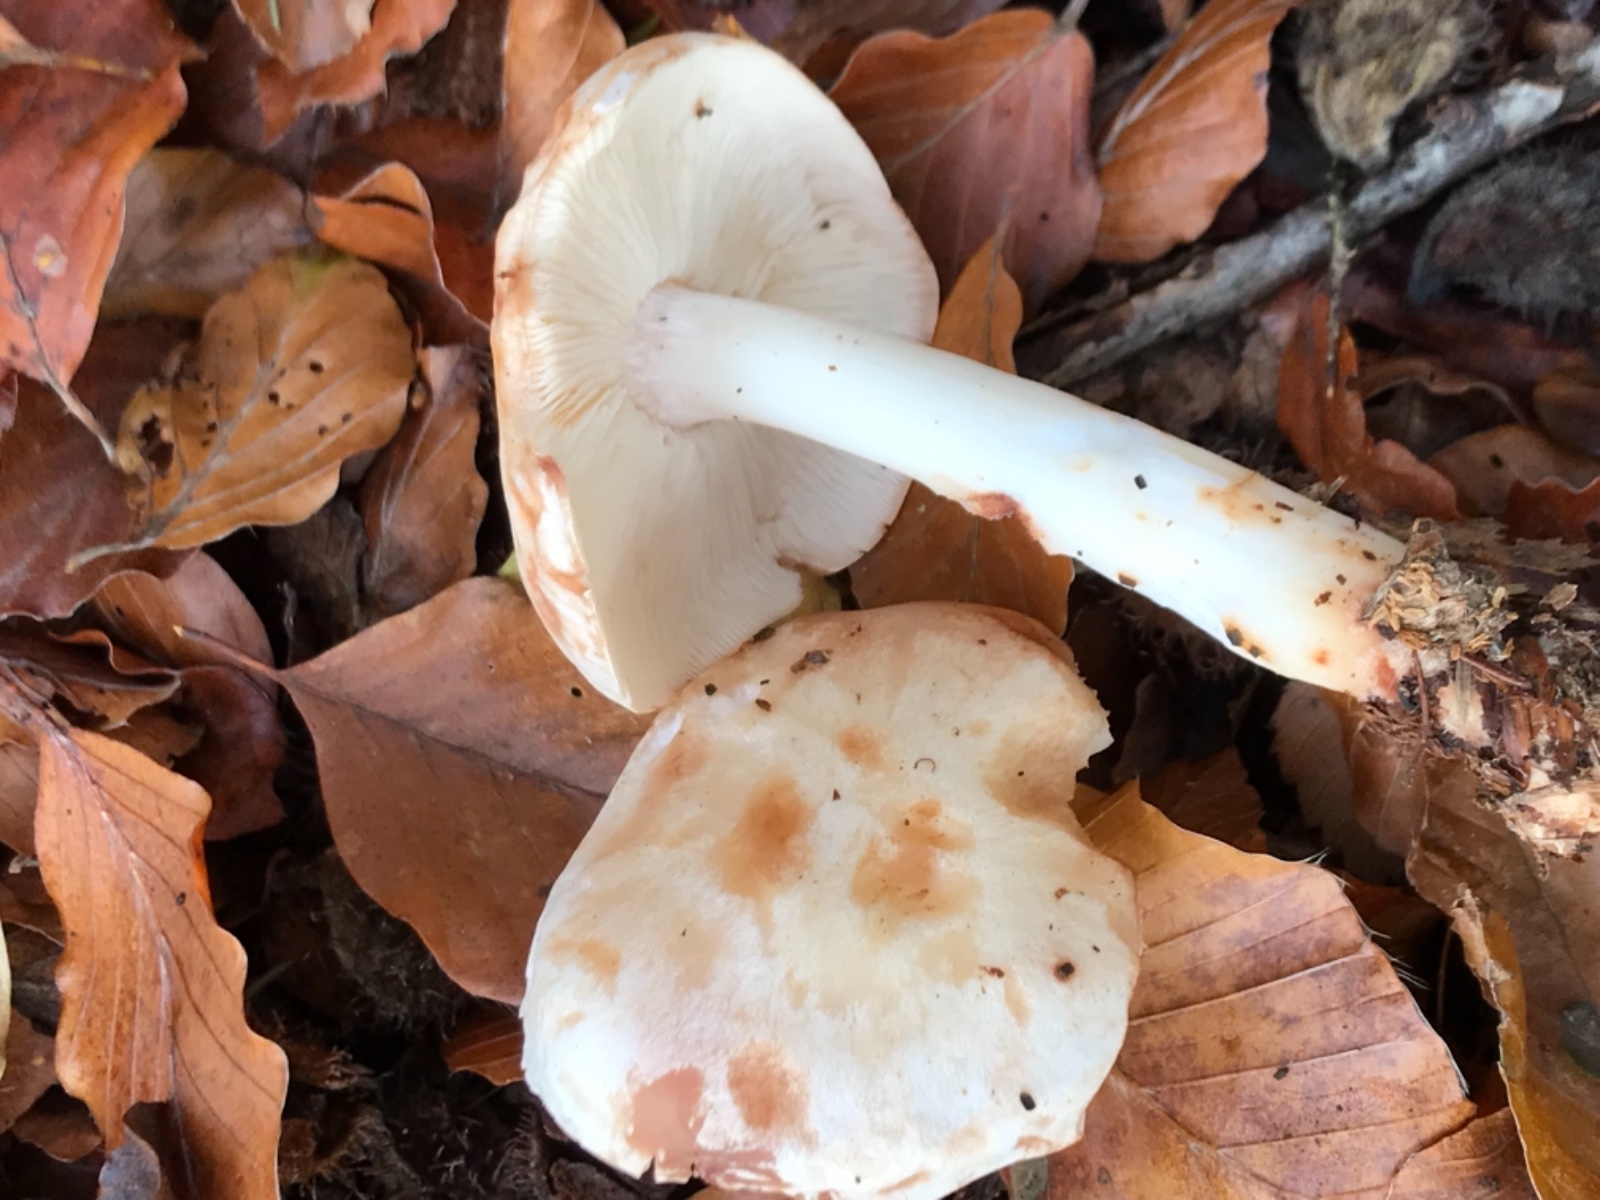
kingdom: Fungi
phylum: Basidiomycota
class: Agaricomycetes
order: Agaricales
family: Omphalotaceae
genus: Rhodocollybia
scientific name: Rhodocollybia maculata
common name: plettet fladhat
